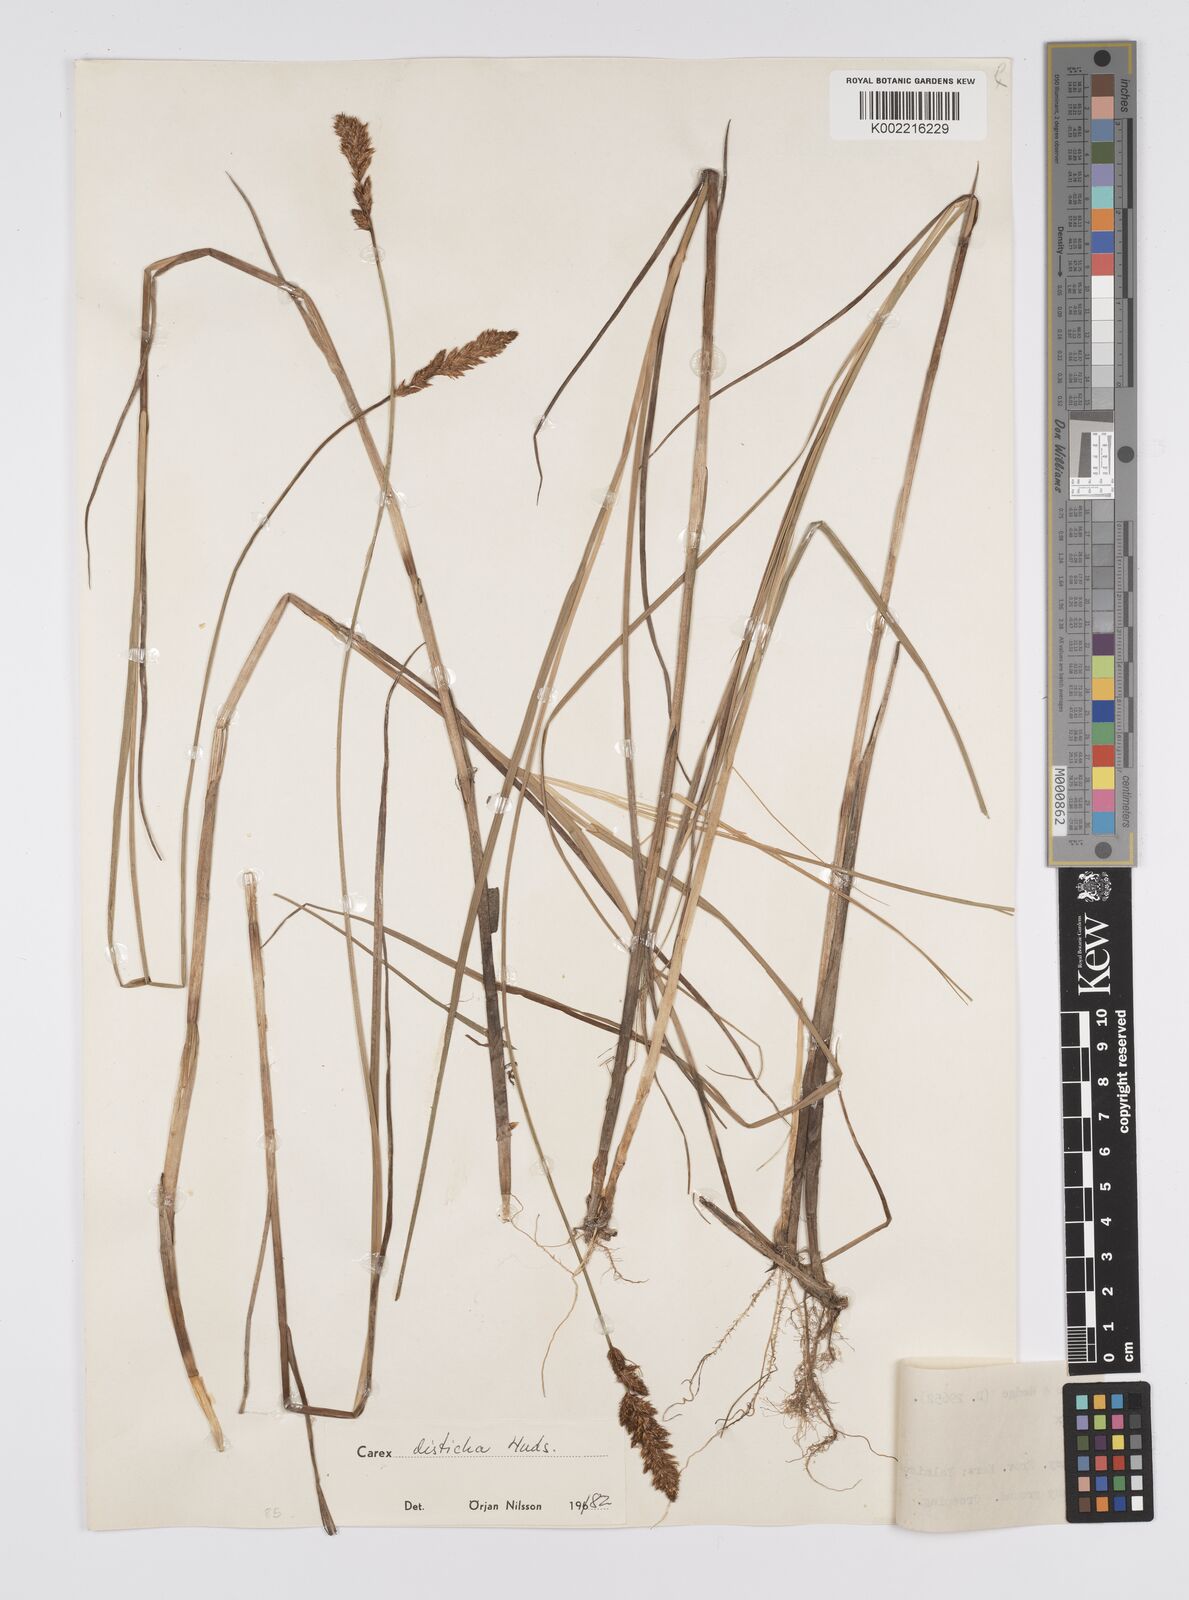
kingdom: Plantae
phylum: Tracheophyta
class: Liliopsida
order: Poales
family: Cyperaceae
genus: Carex
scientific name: Carex disticha
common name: Brown sedge
